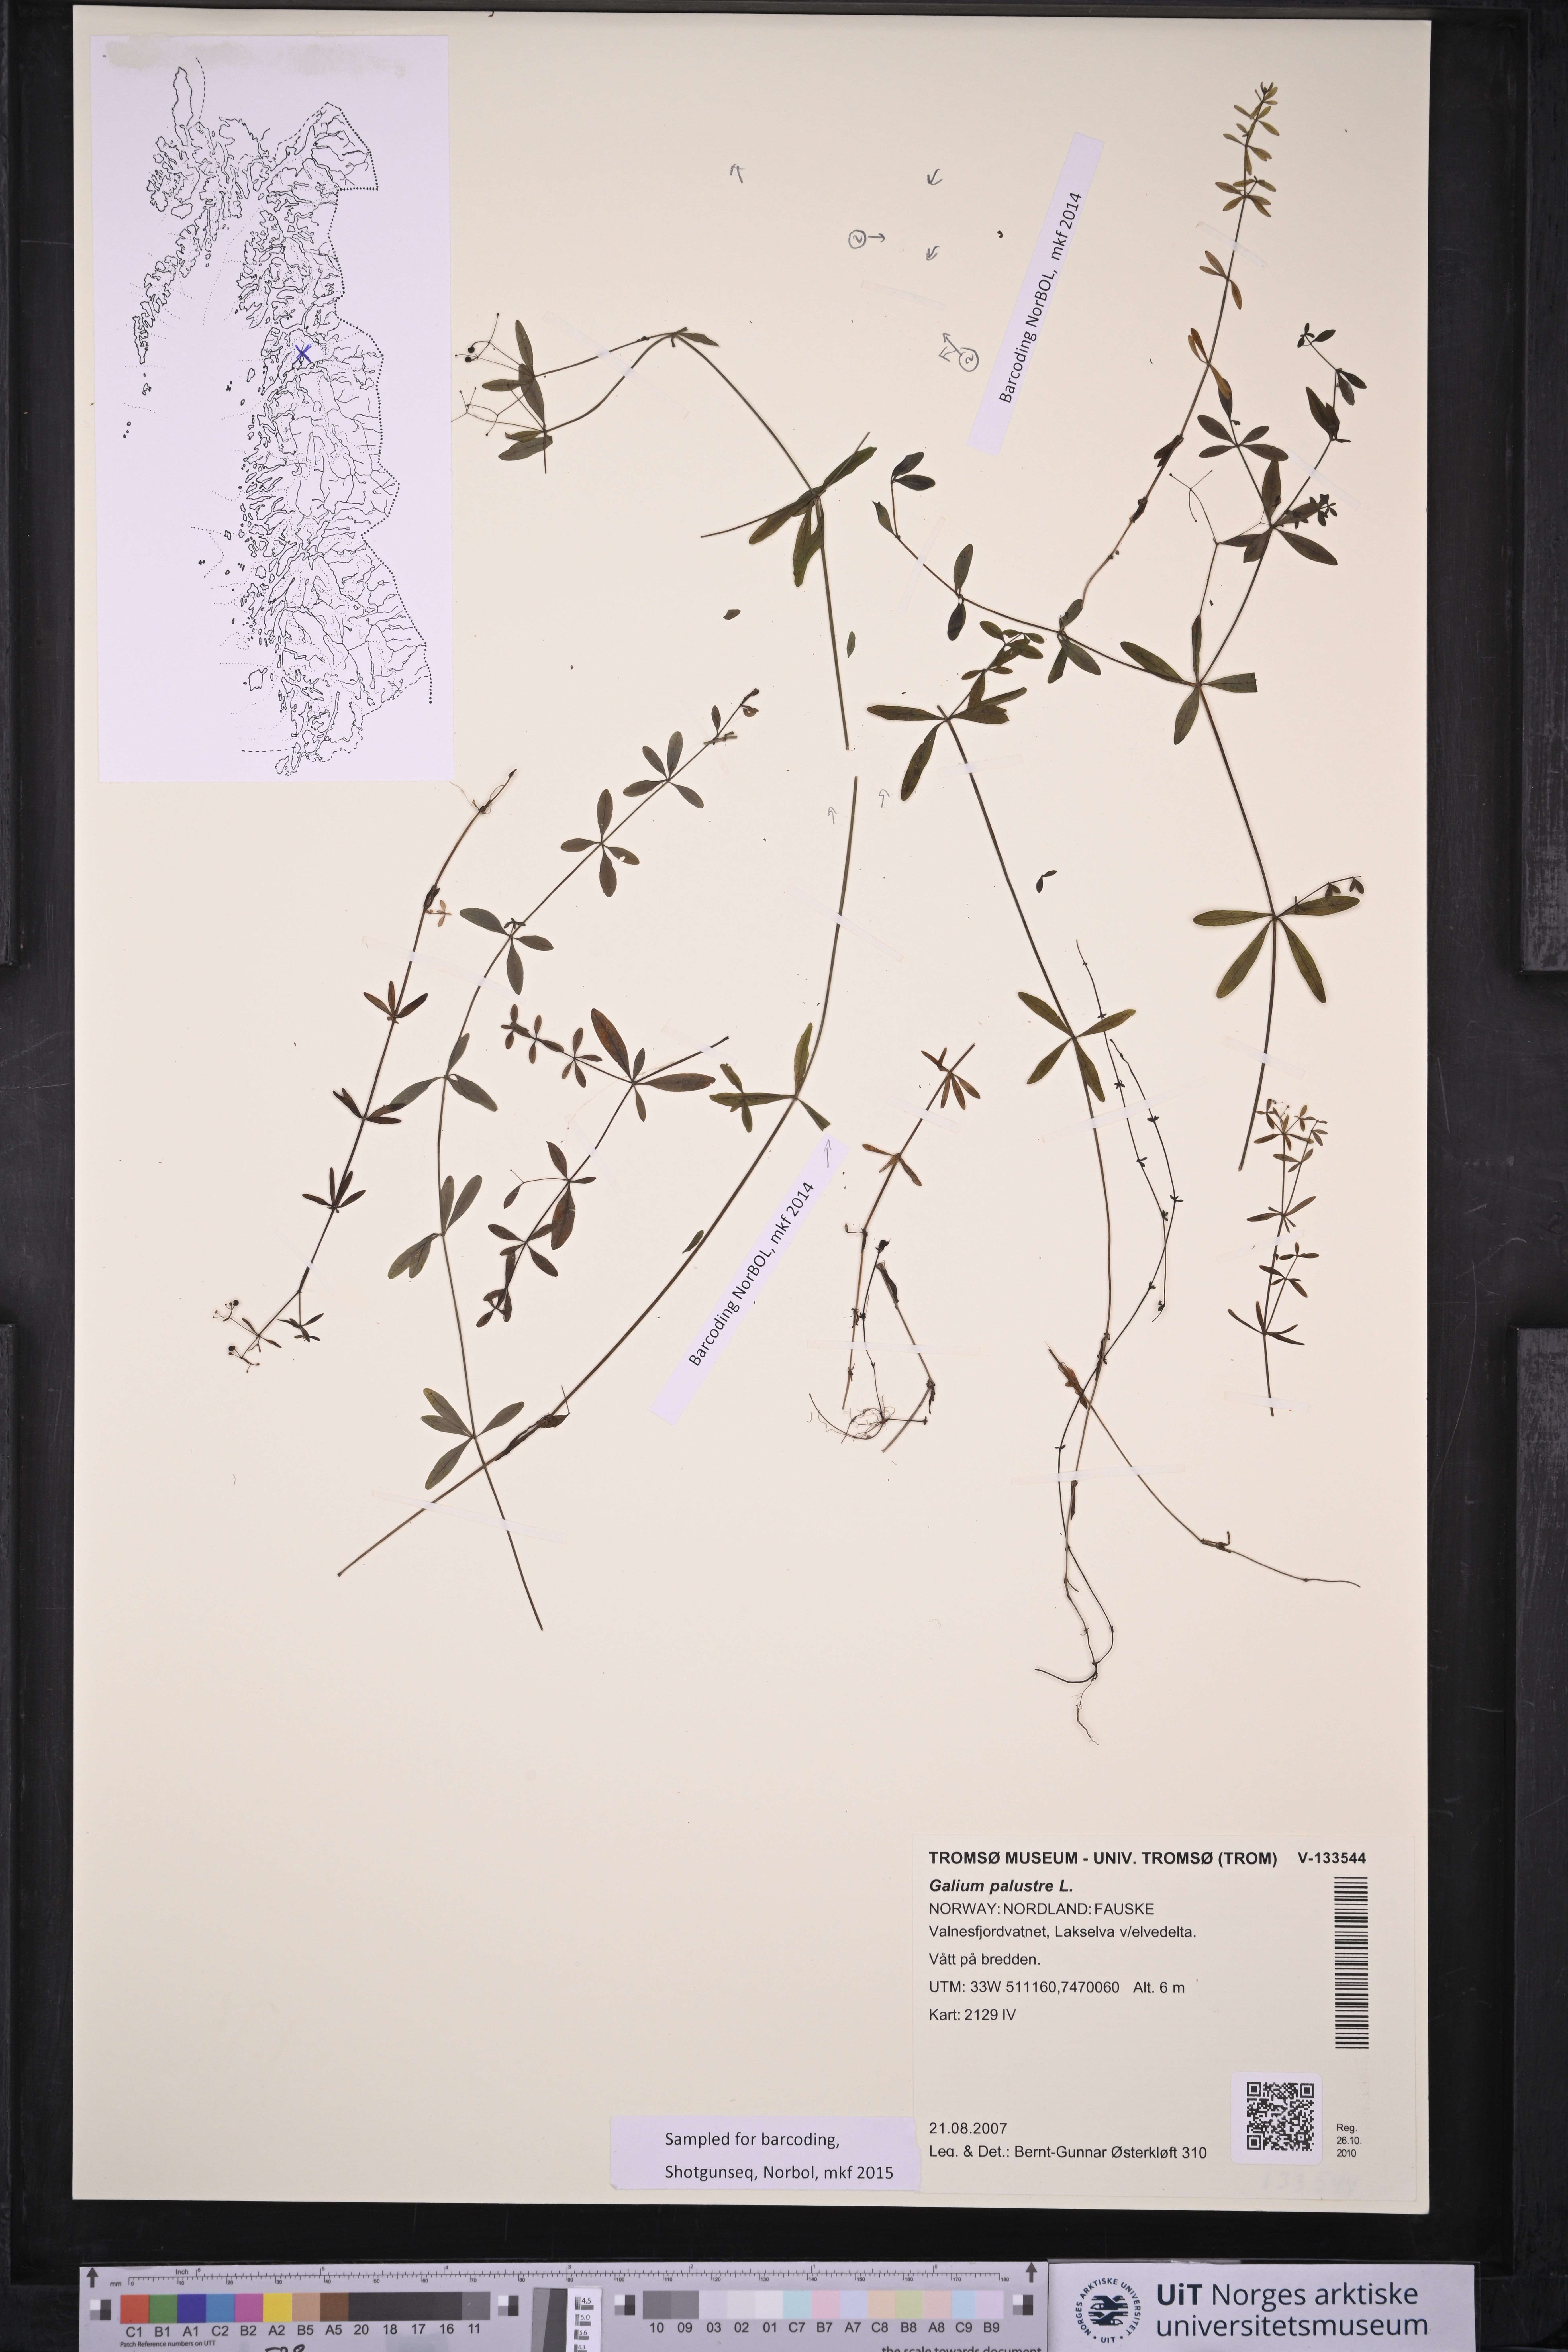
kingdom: Plantae
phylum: Tracheophyta
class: Magnoliopsida
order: Gentianales
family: Rubiaceae
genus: Galium
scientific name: Galium palustre
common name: Common marsh-bedstraw
